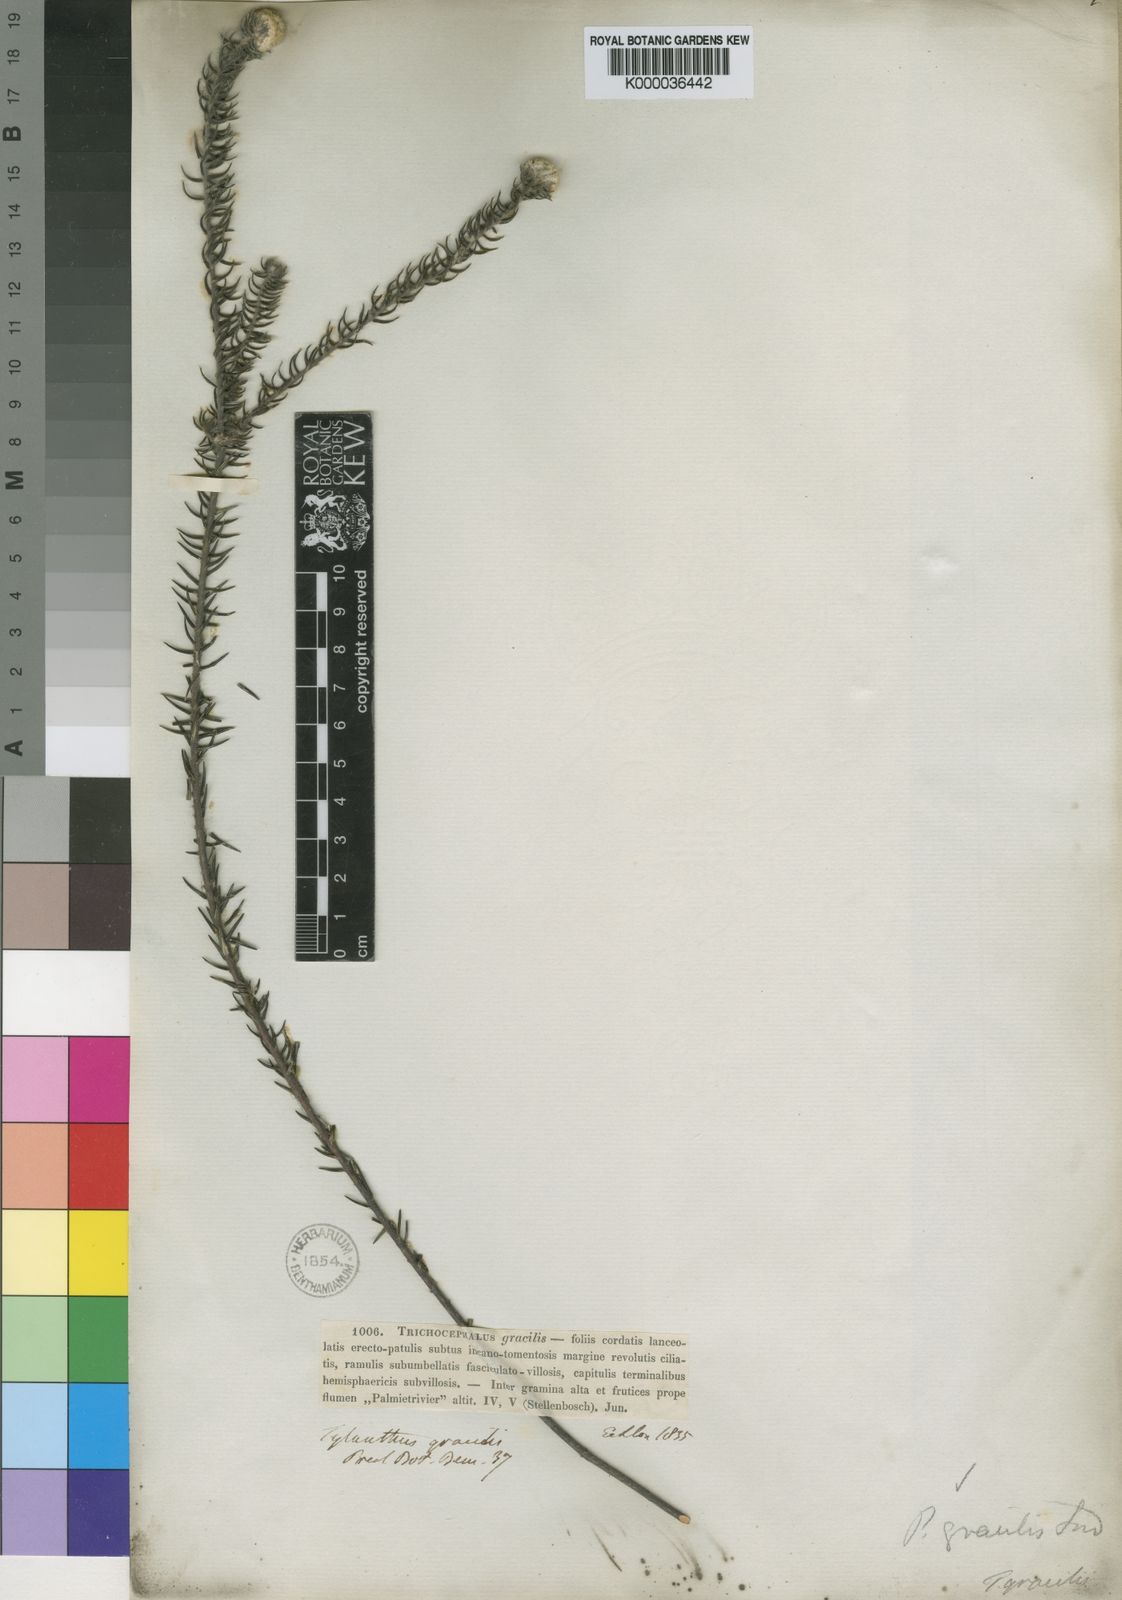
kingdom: Plantae
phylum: Tracheophyta
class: Magnoliopsida
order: Rosales
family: Rhamnaceae
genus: Phylica
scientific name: Phylica gracilis
